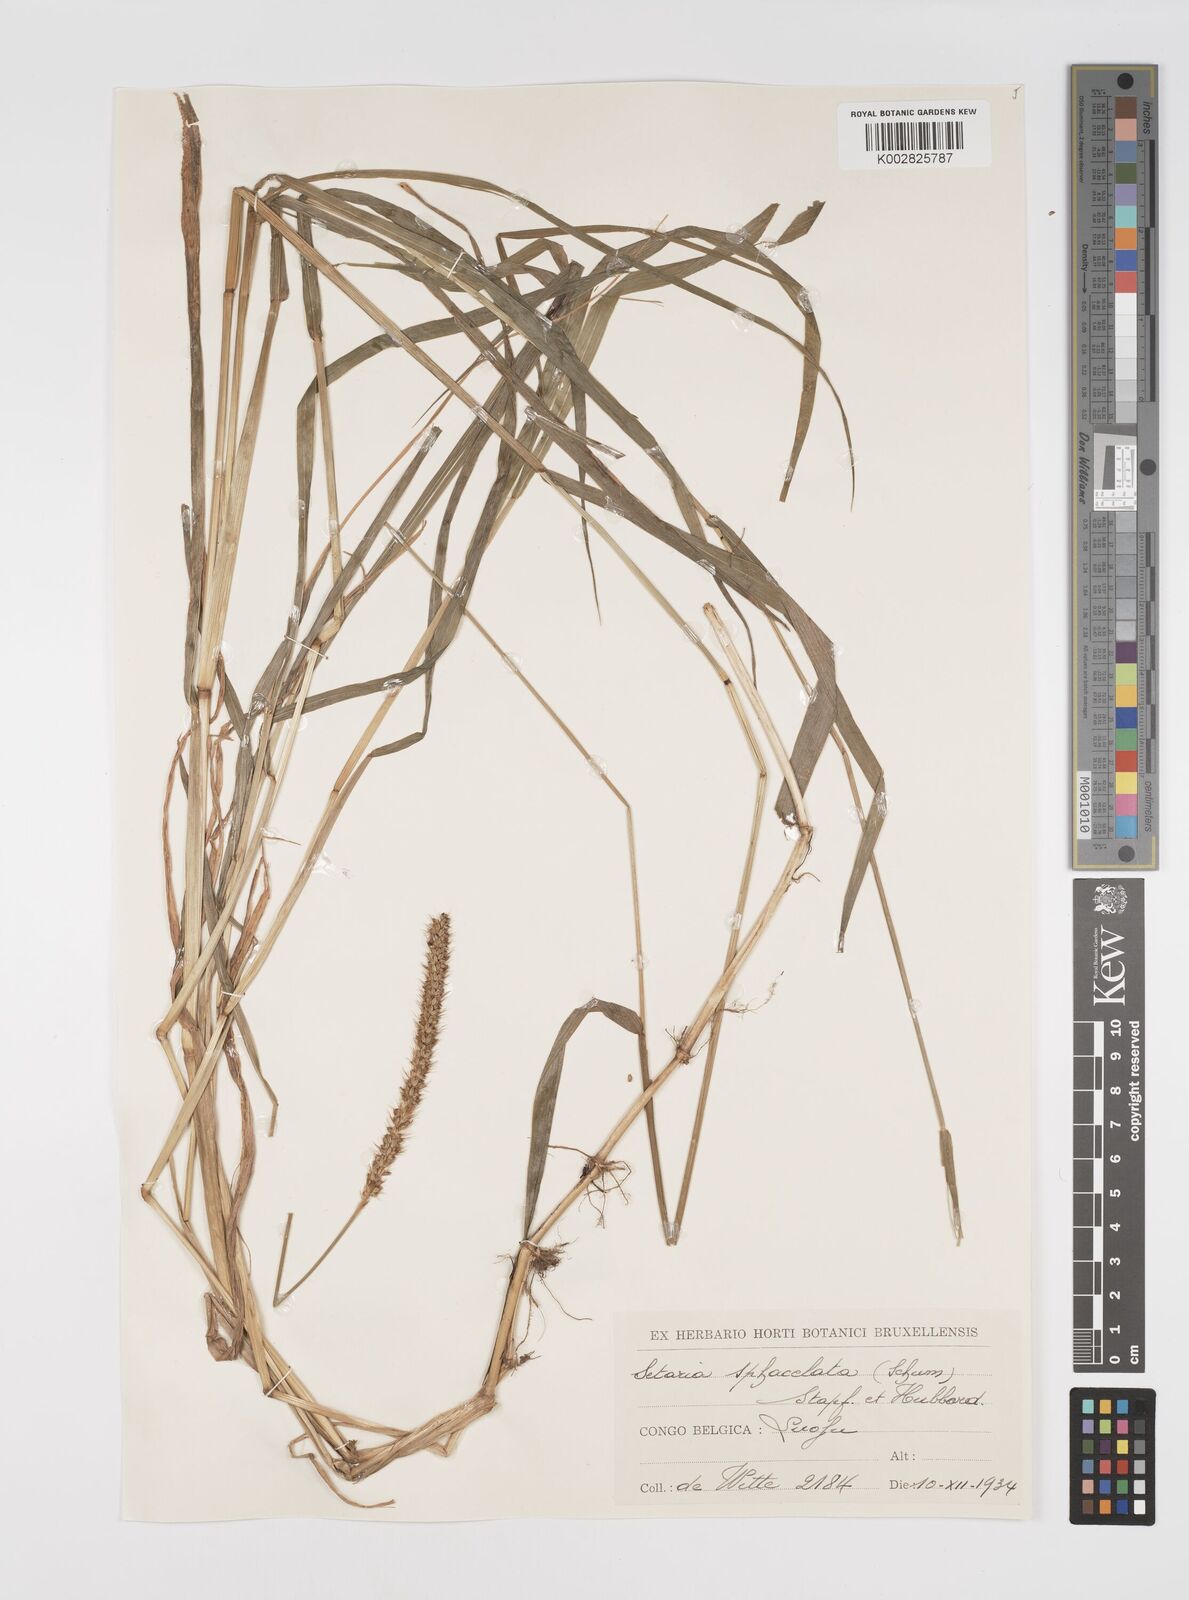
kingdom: Plantae
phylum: Tracheophyta
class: Liliopsida
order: Poales
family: Poaceae
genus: Setaria
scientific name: Setaria sphacelata
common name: African bristlegrass
